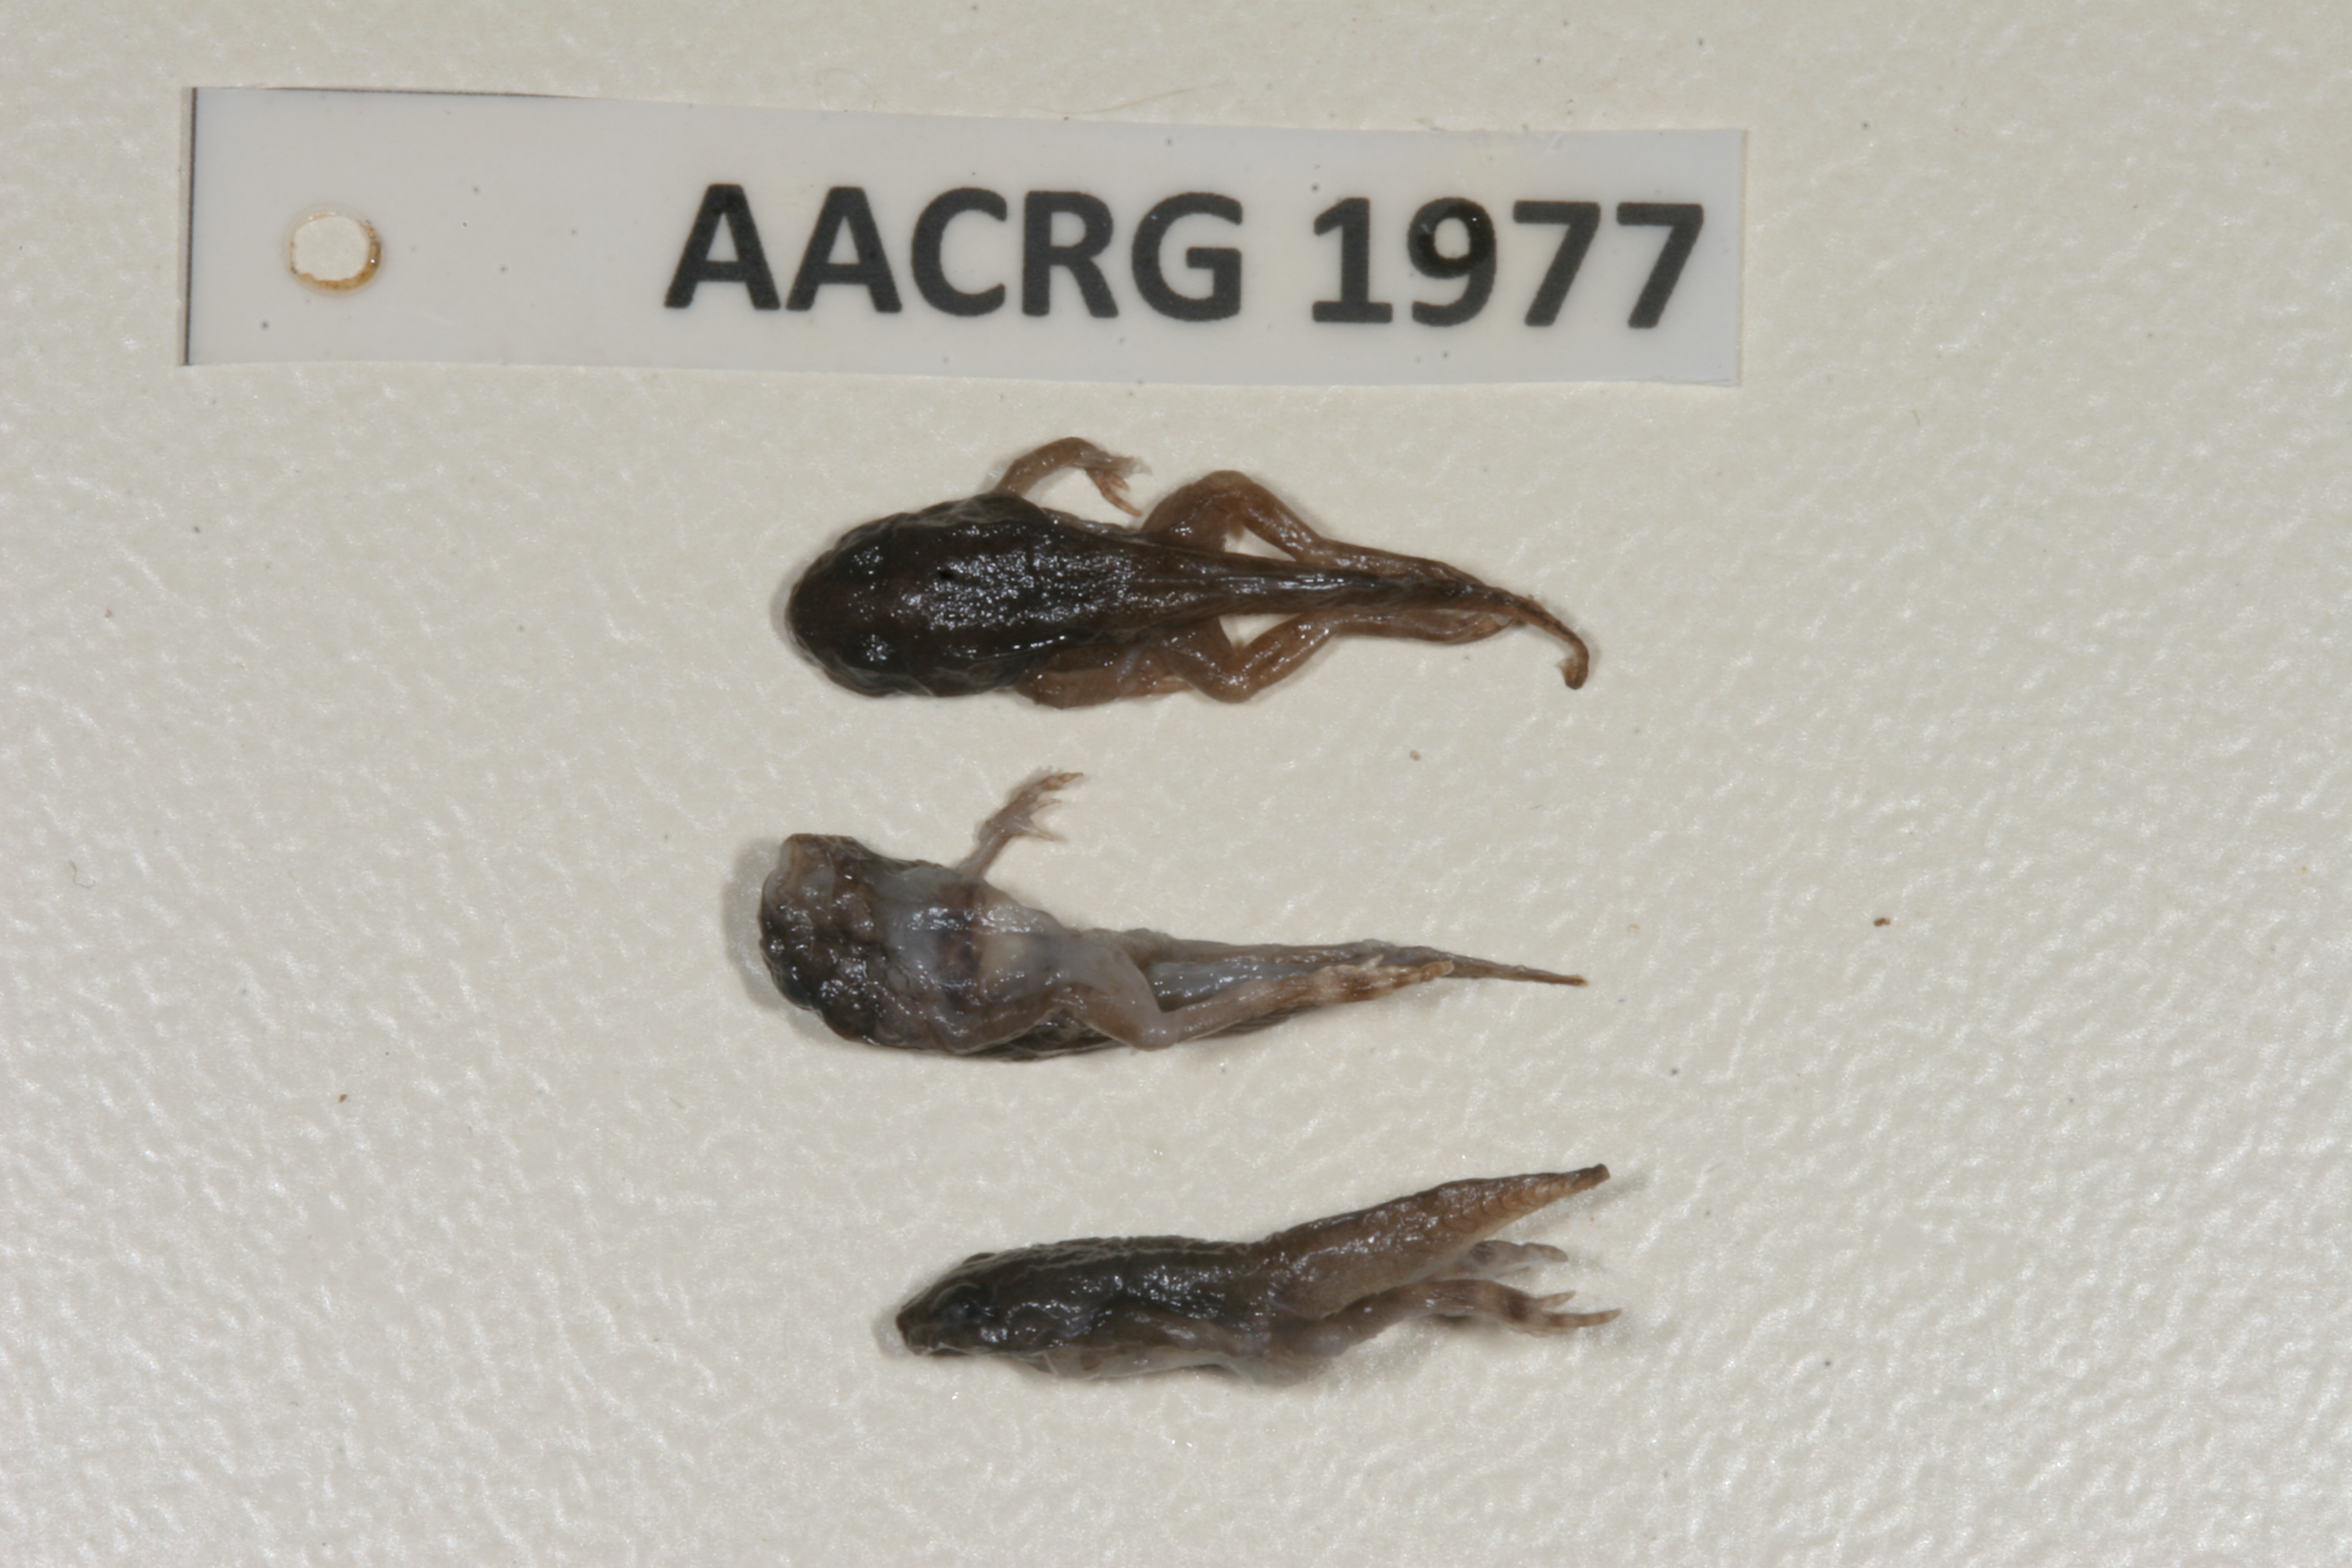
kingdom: Animalia
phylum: Chordata
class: Amphibia
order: Anura
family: Ptychadenidae
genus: Ptychadena
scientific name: Ptychadena subpunctata
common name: Bocage's grassland frog
